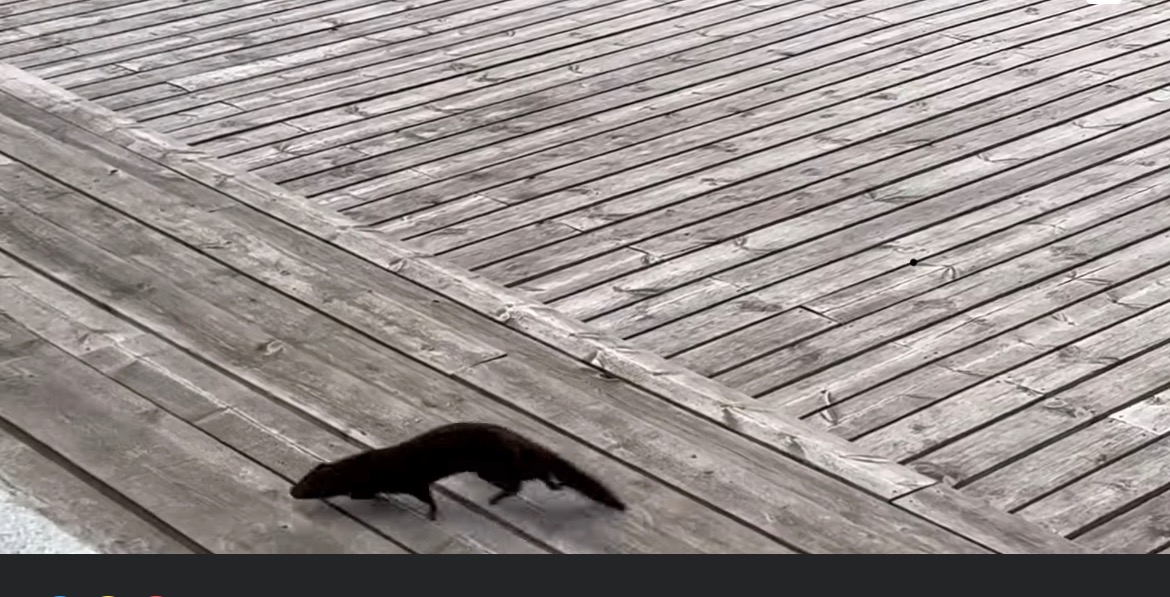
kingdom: Animalia
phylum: Chordata
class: Mammalia
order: Carnivora
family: Mustelidae
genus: Mustela
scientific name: Mustela vison
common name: Mink
